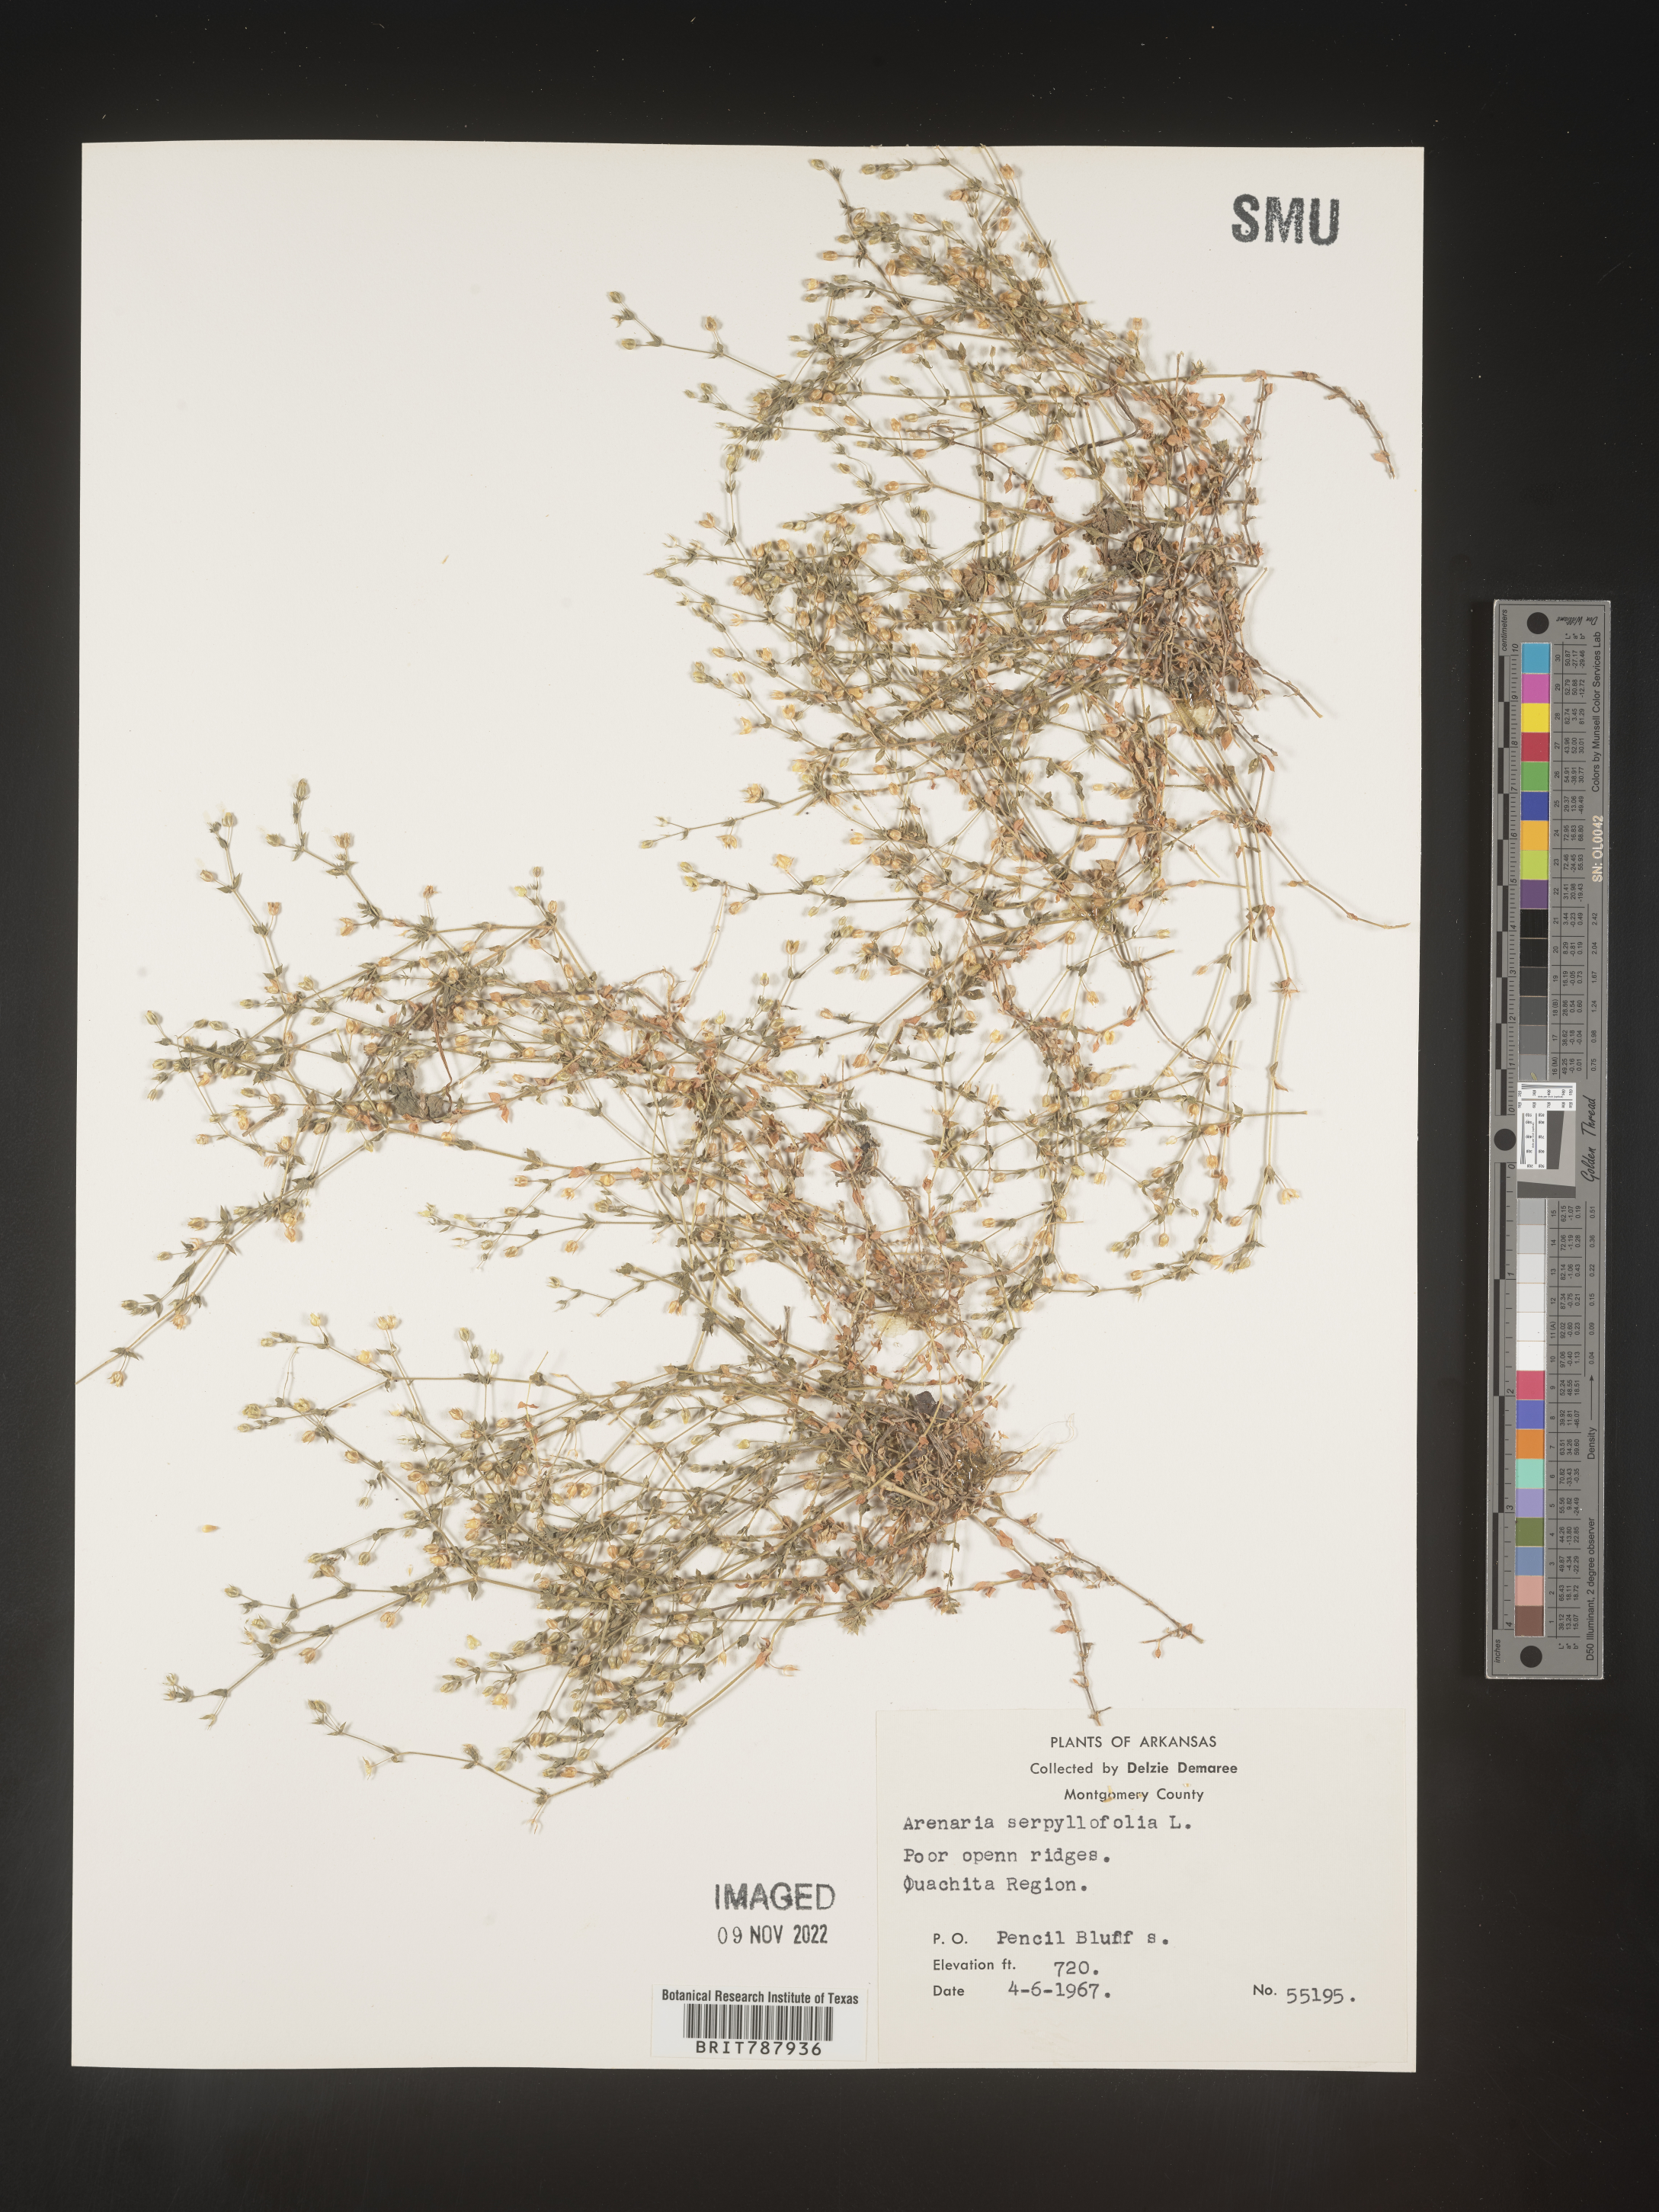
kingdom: Plantae
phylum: Tracheophyta
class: Magnoliopsida
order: Caryophyllales
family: Caryophyllaceae
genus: Arenaria
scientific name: Arenaria serpyllifolia
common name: Thyme-leaved sandwort
